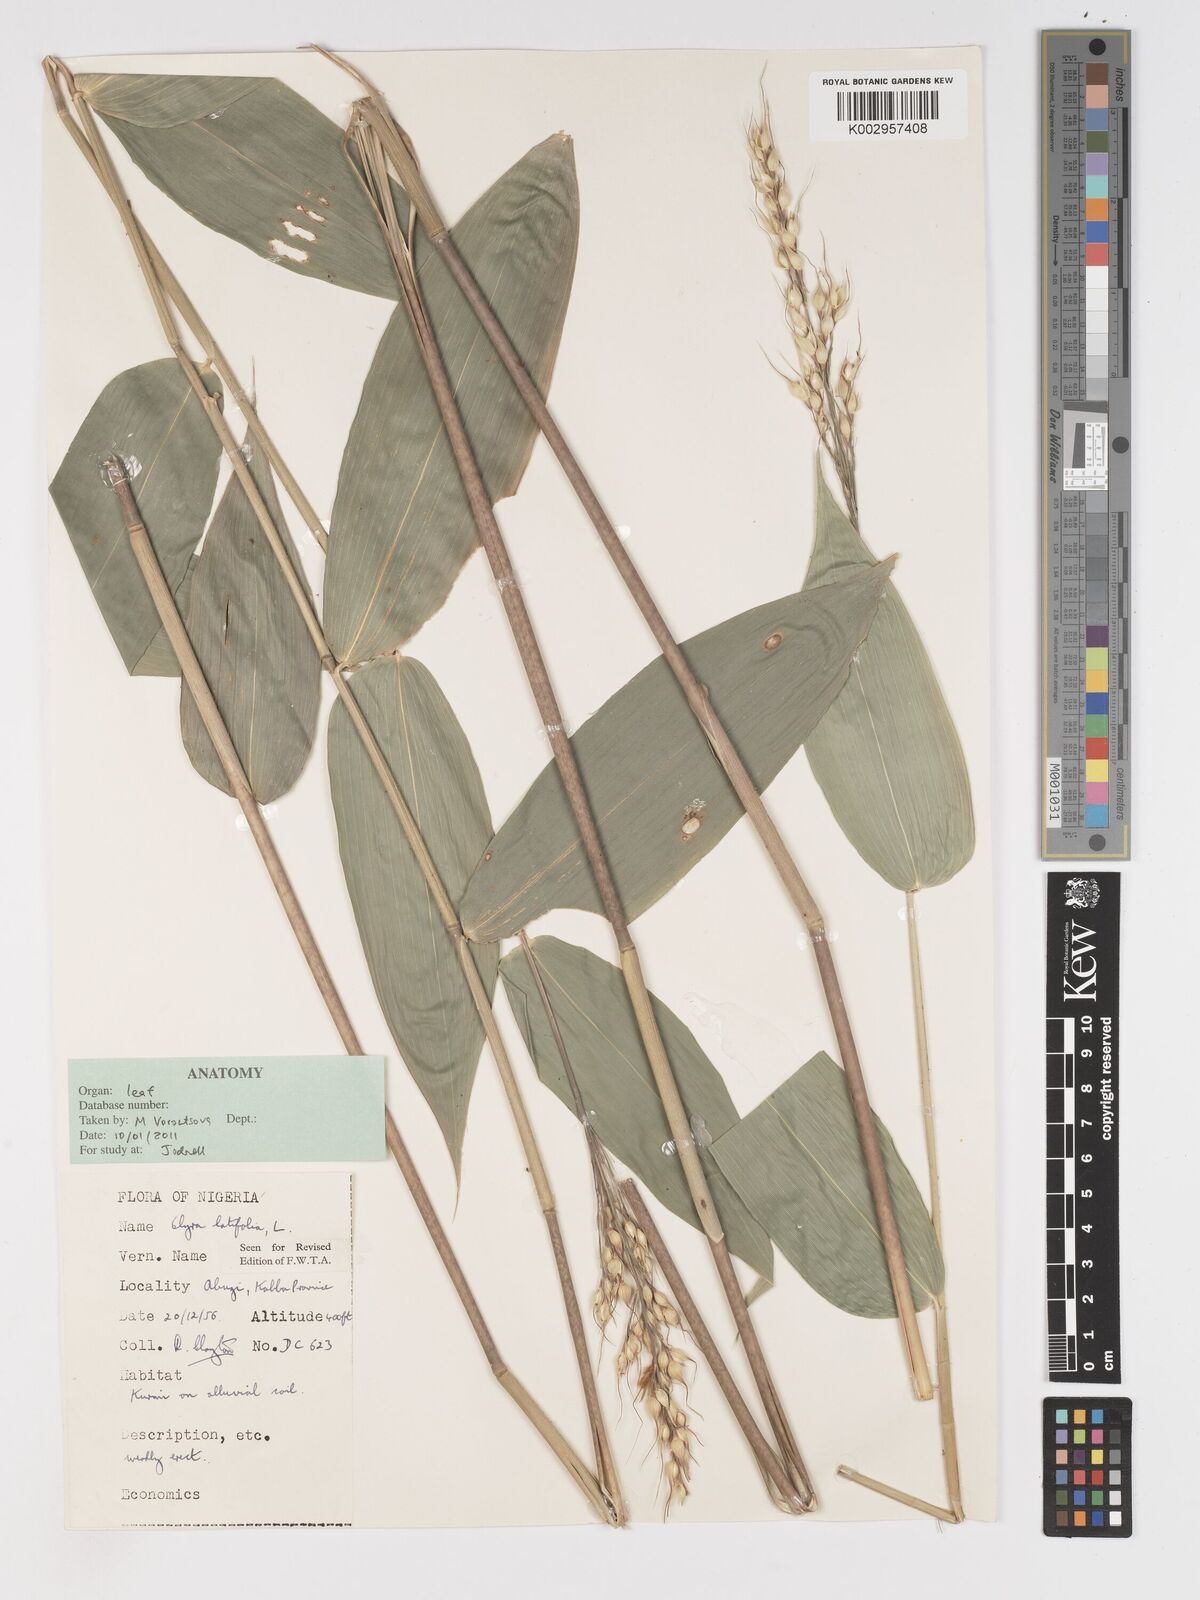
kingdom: Plantae
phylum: Tracheophyta
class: Liliopsida
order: Poales
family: Poaceae
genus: Olyra
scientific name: Olyra latifolia
